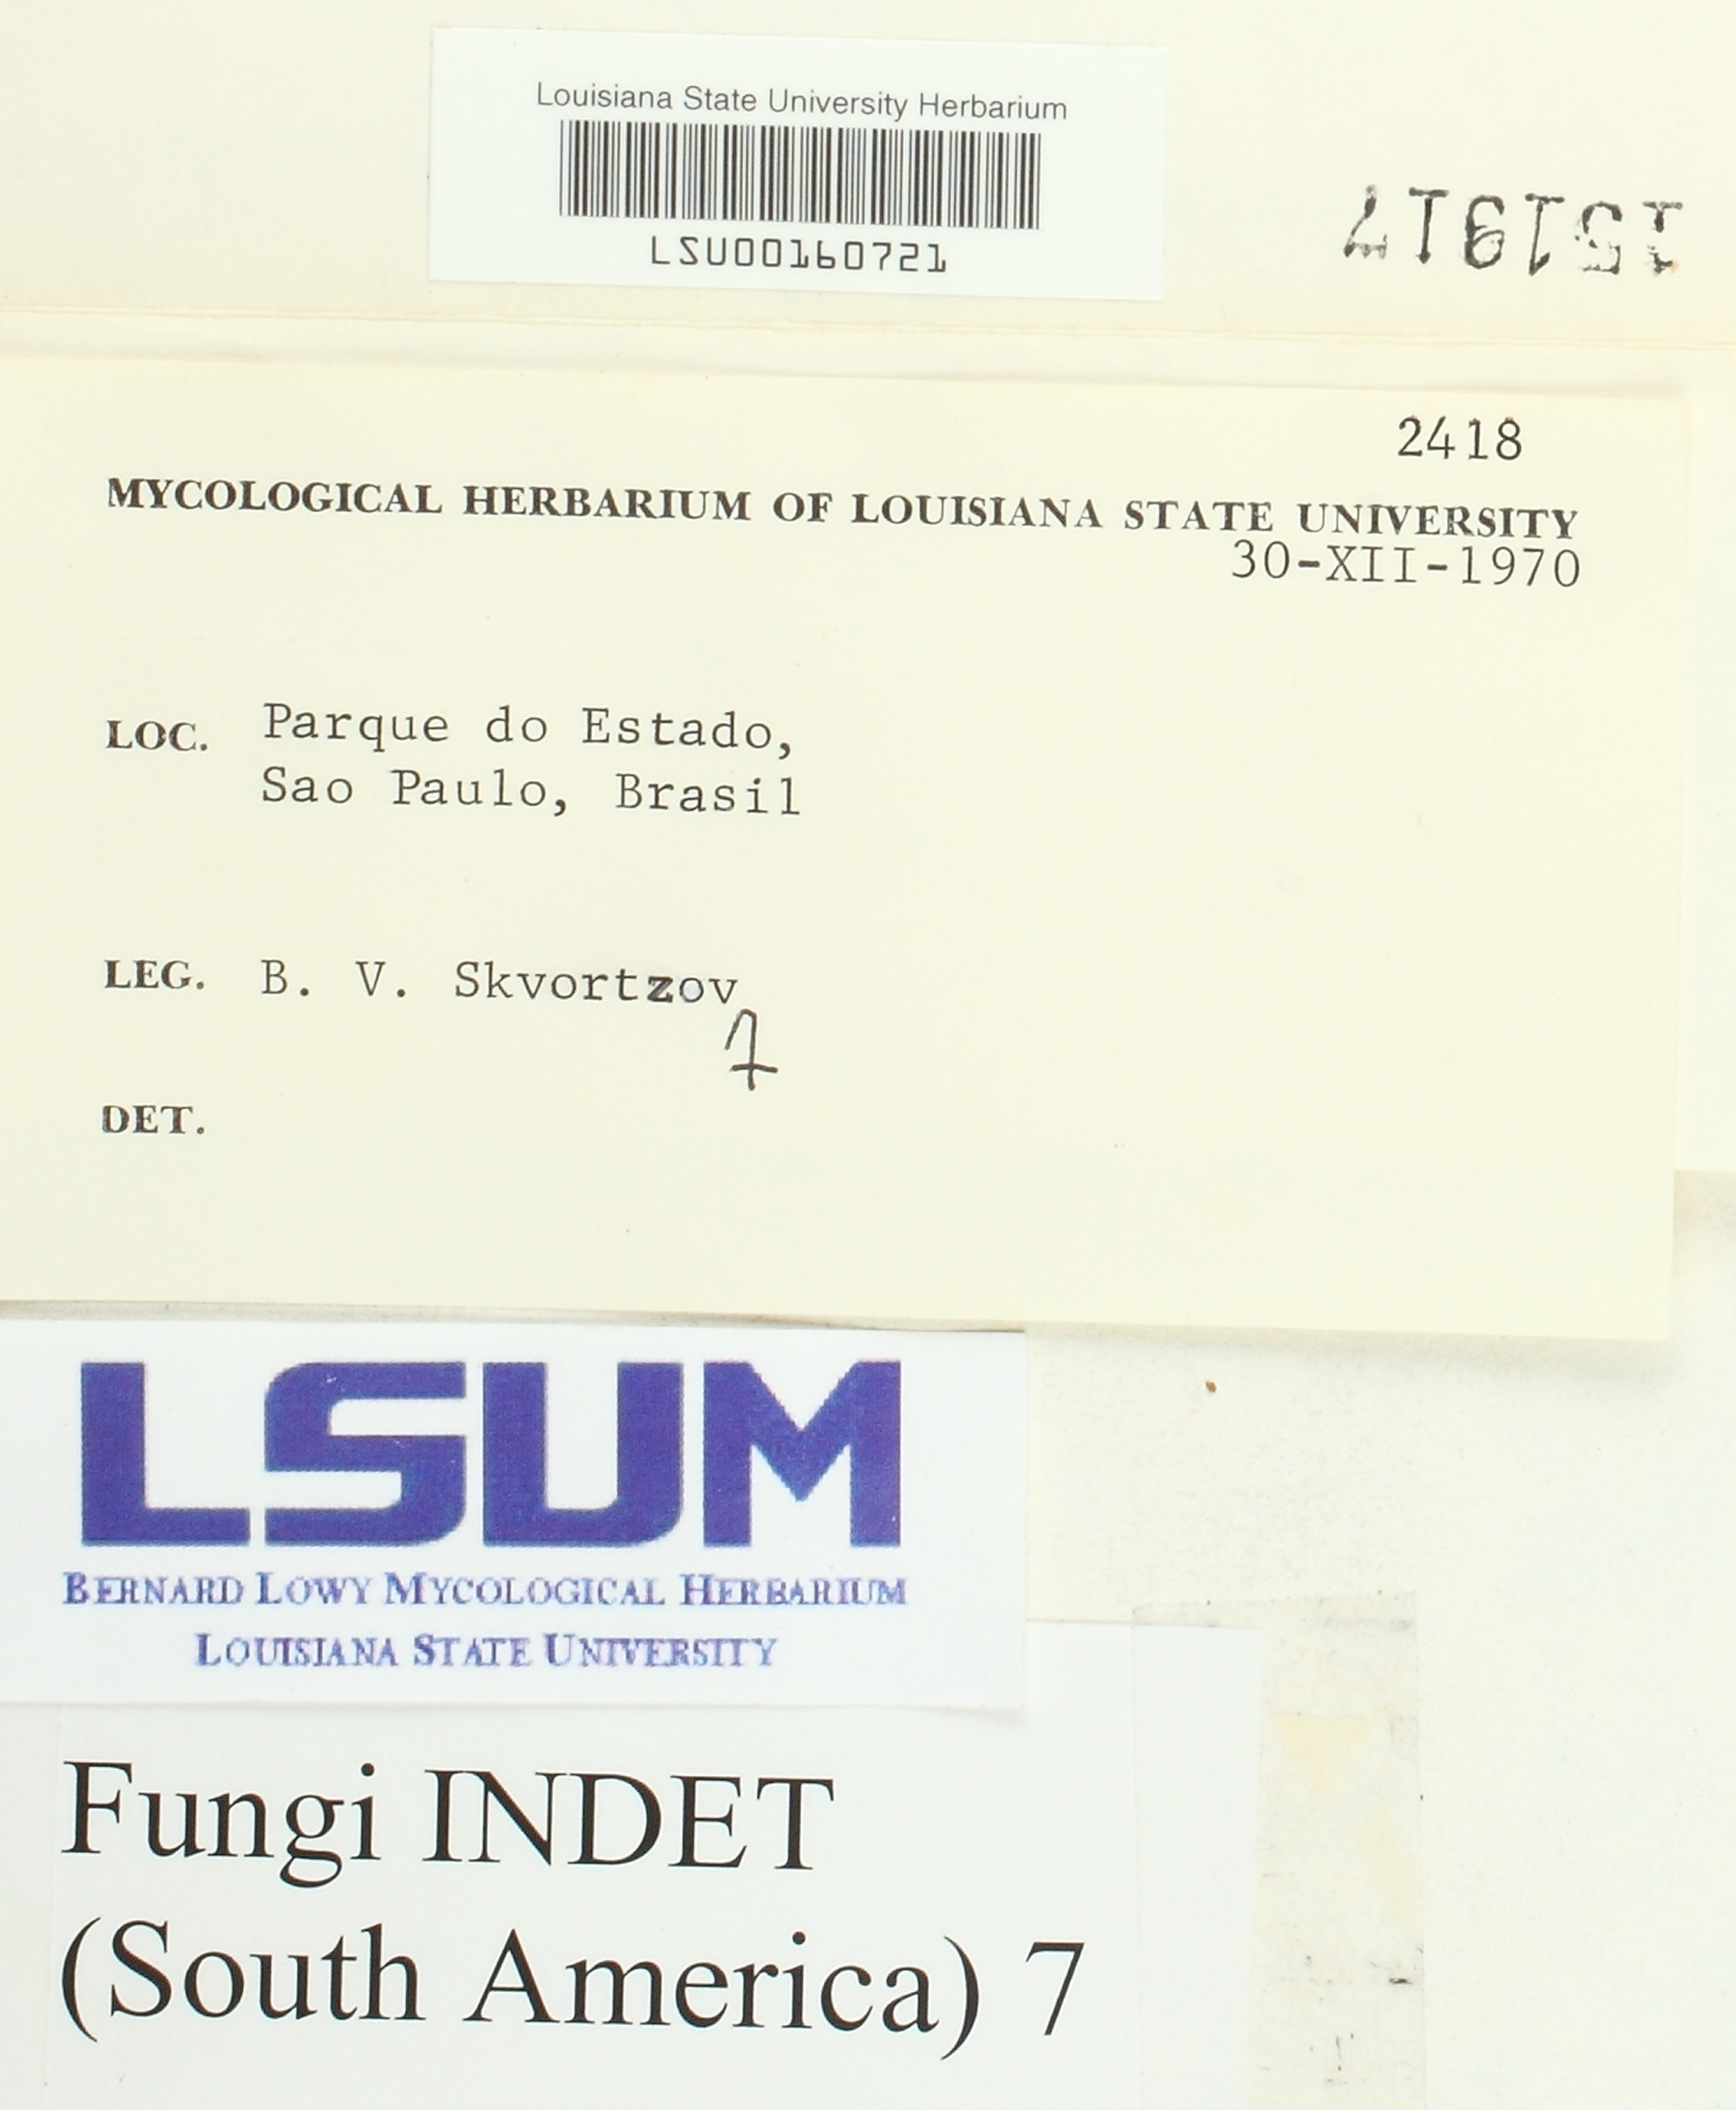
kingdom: Fungi
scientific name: Fungi
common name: Fungi
